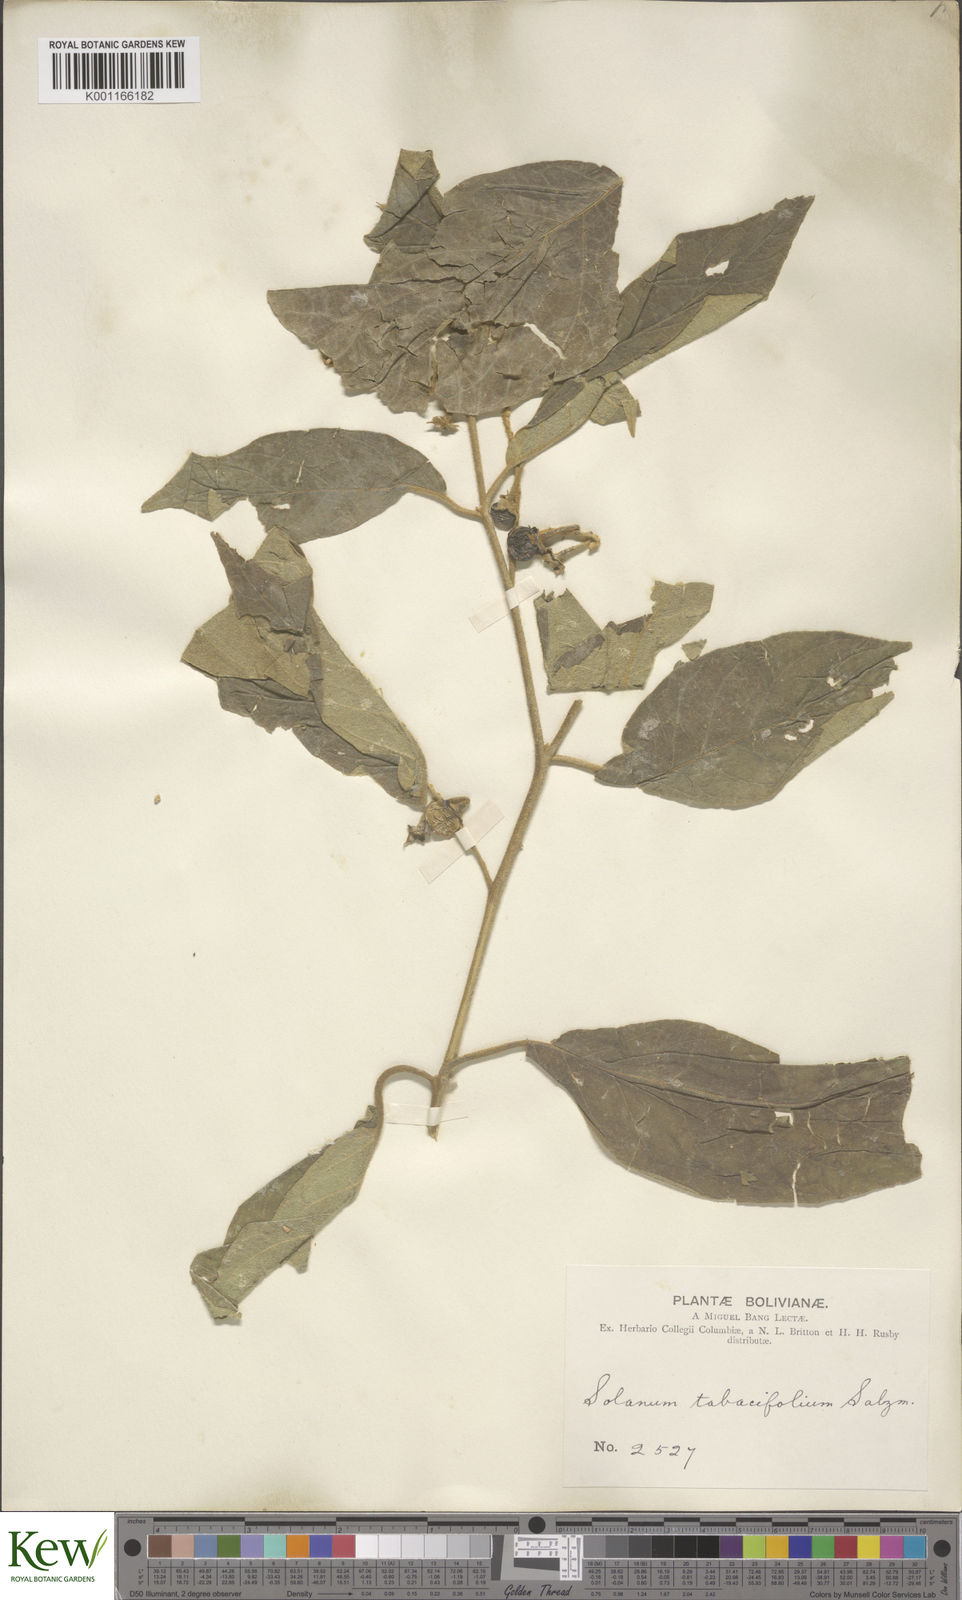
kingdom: Plantae
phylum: Tracheophyta
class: Magnoliopsida
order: Solanales
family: Solanaceae
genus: Solanum
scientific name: Solanum scuticum
